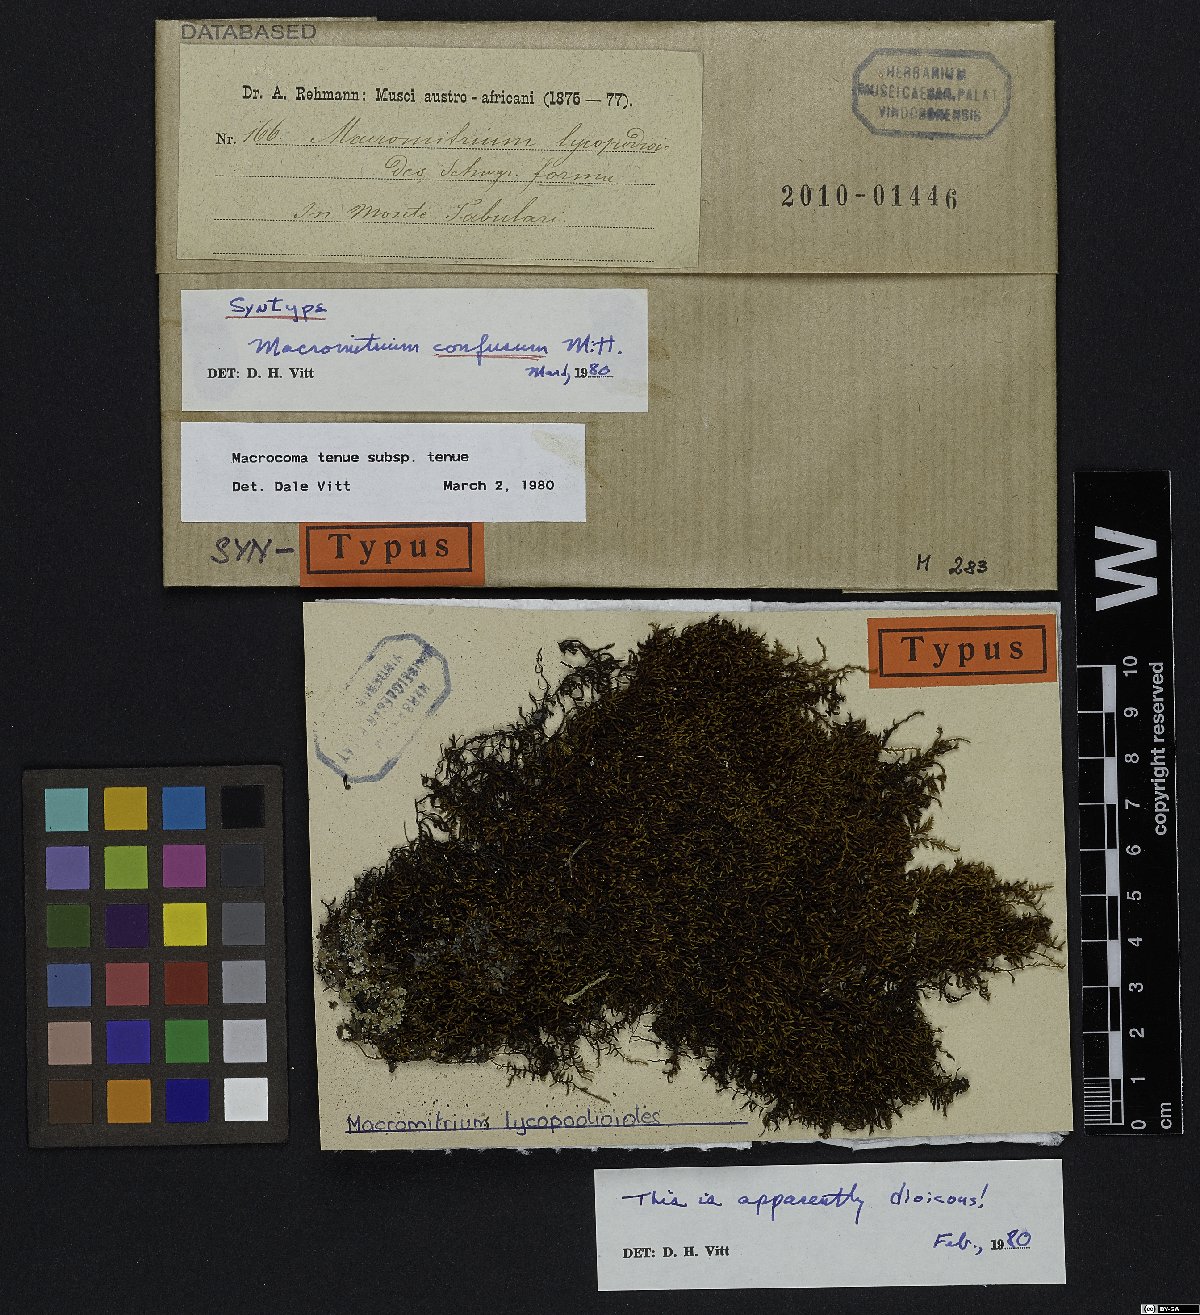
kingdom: Plantae
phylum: Bryophyta
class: Bryopsida
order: Orthotrichales
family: Orthotrichaceae
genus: Macrocoma
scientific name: Macrocoma tenuis
